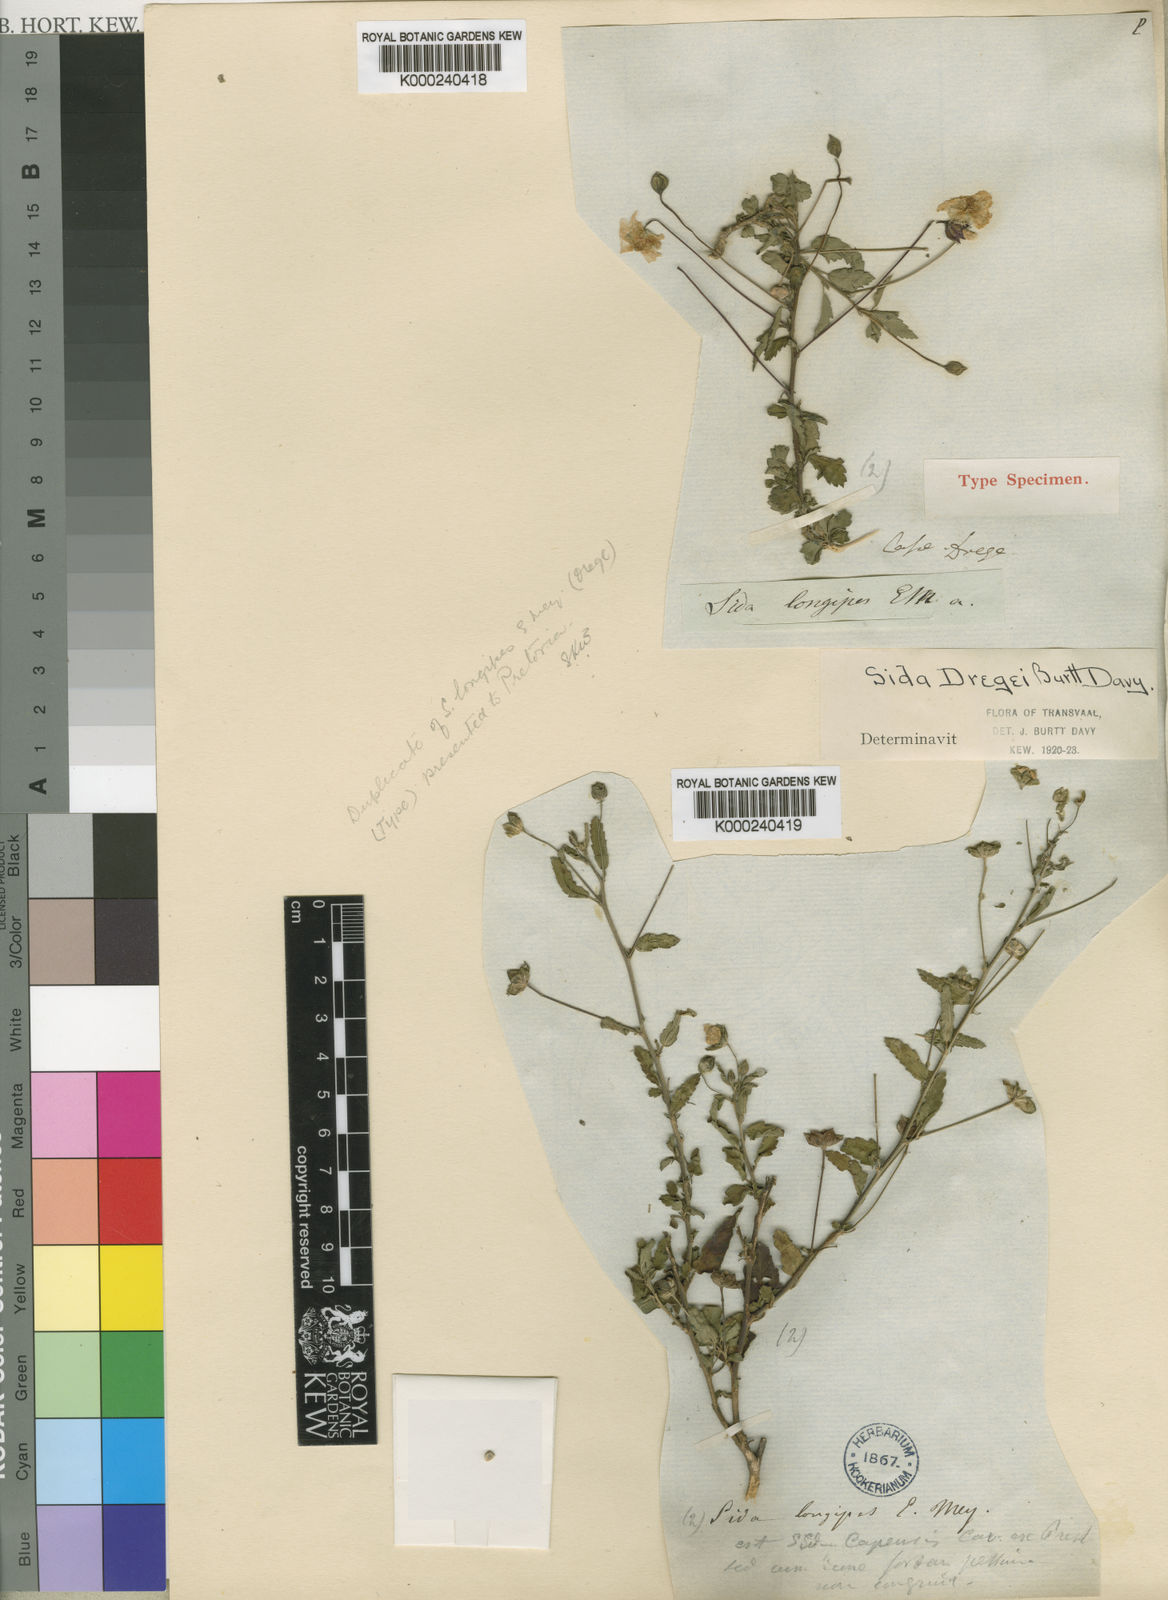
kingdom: Plantae
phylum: Tracheophyta
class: Magnoliopsida
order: Malvales
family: Malvaceae
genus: Sida
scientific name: Sida lancifolia
